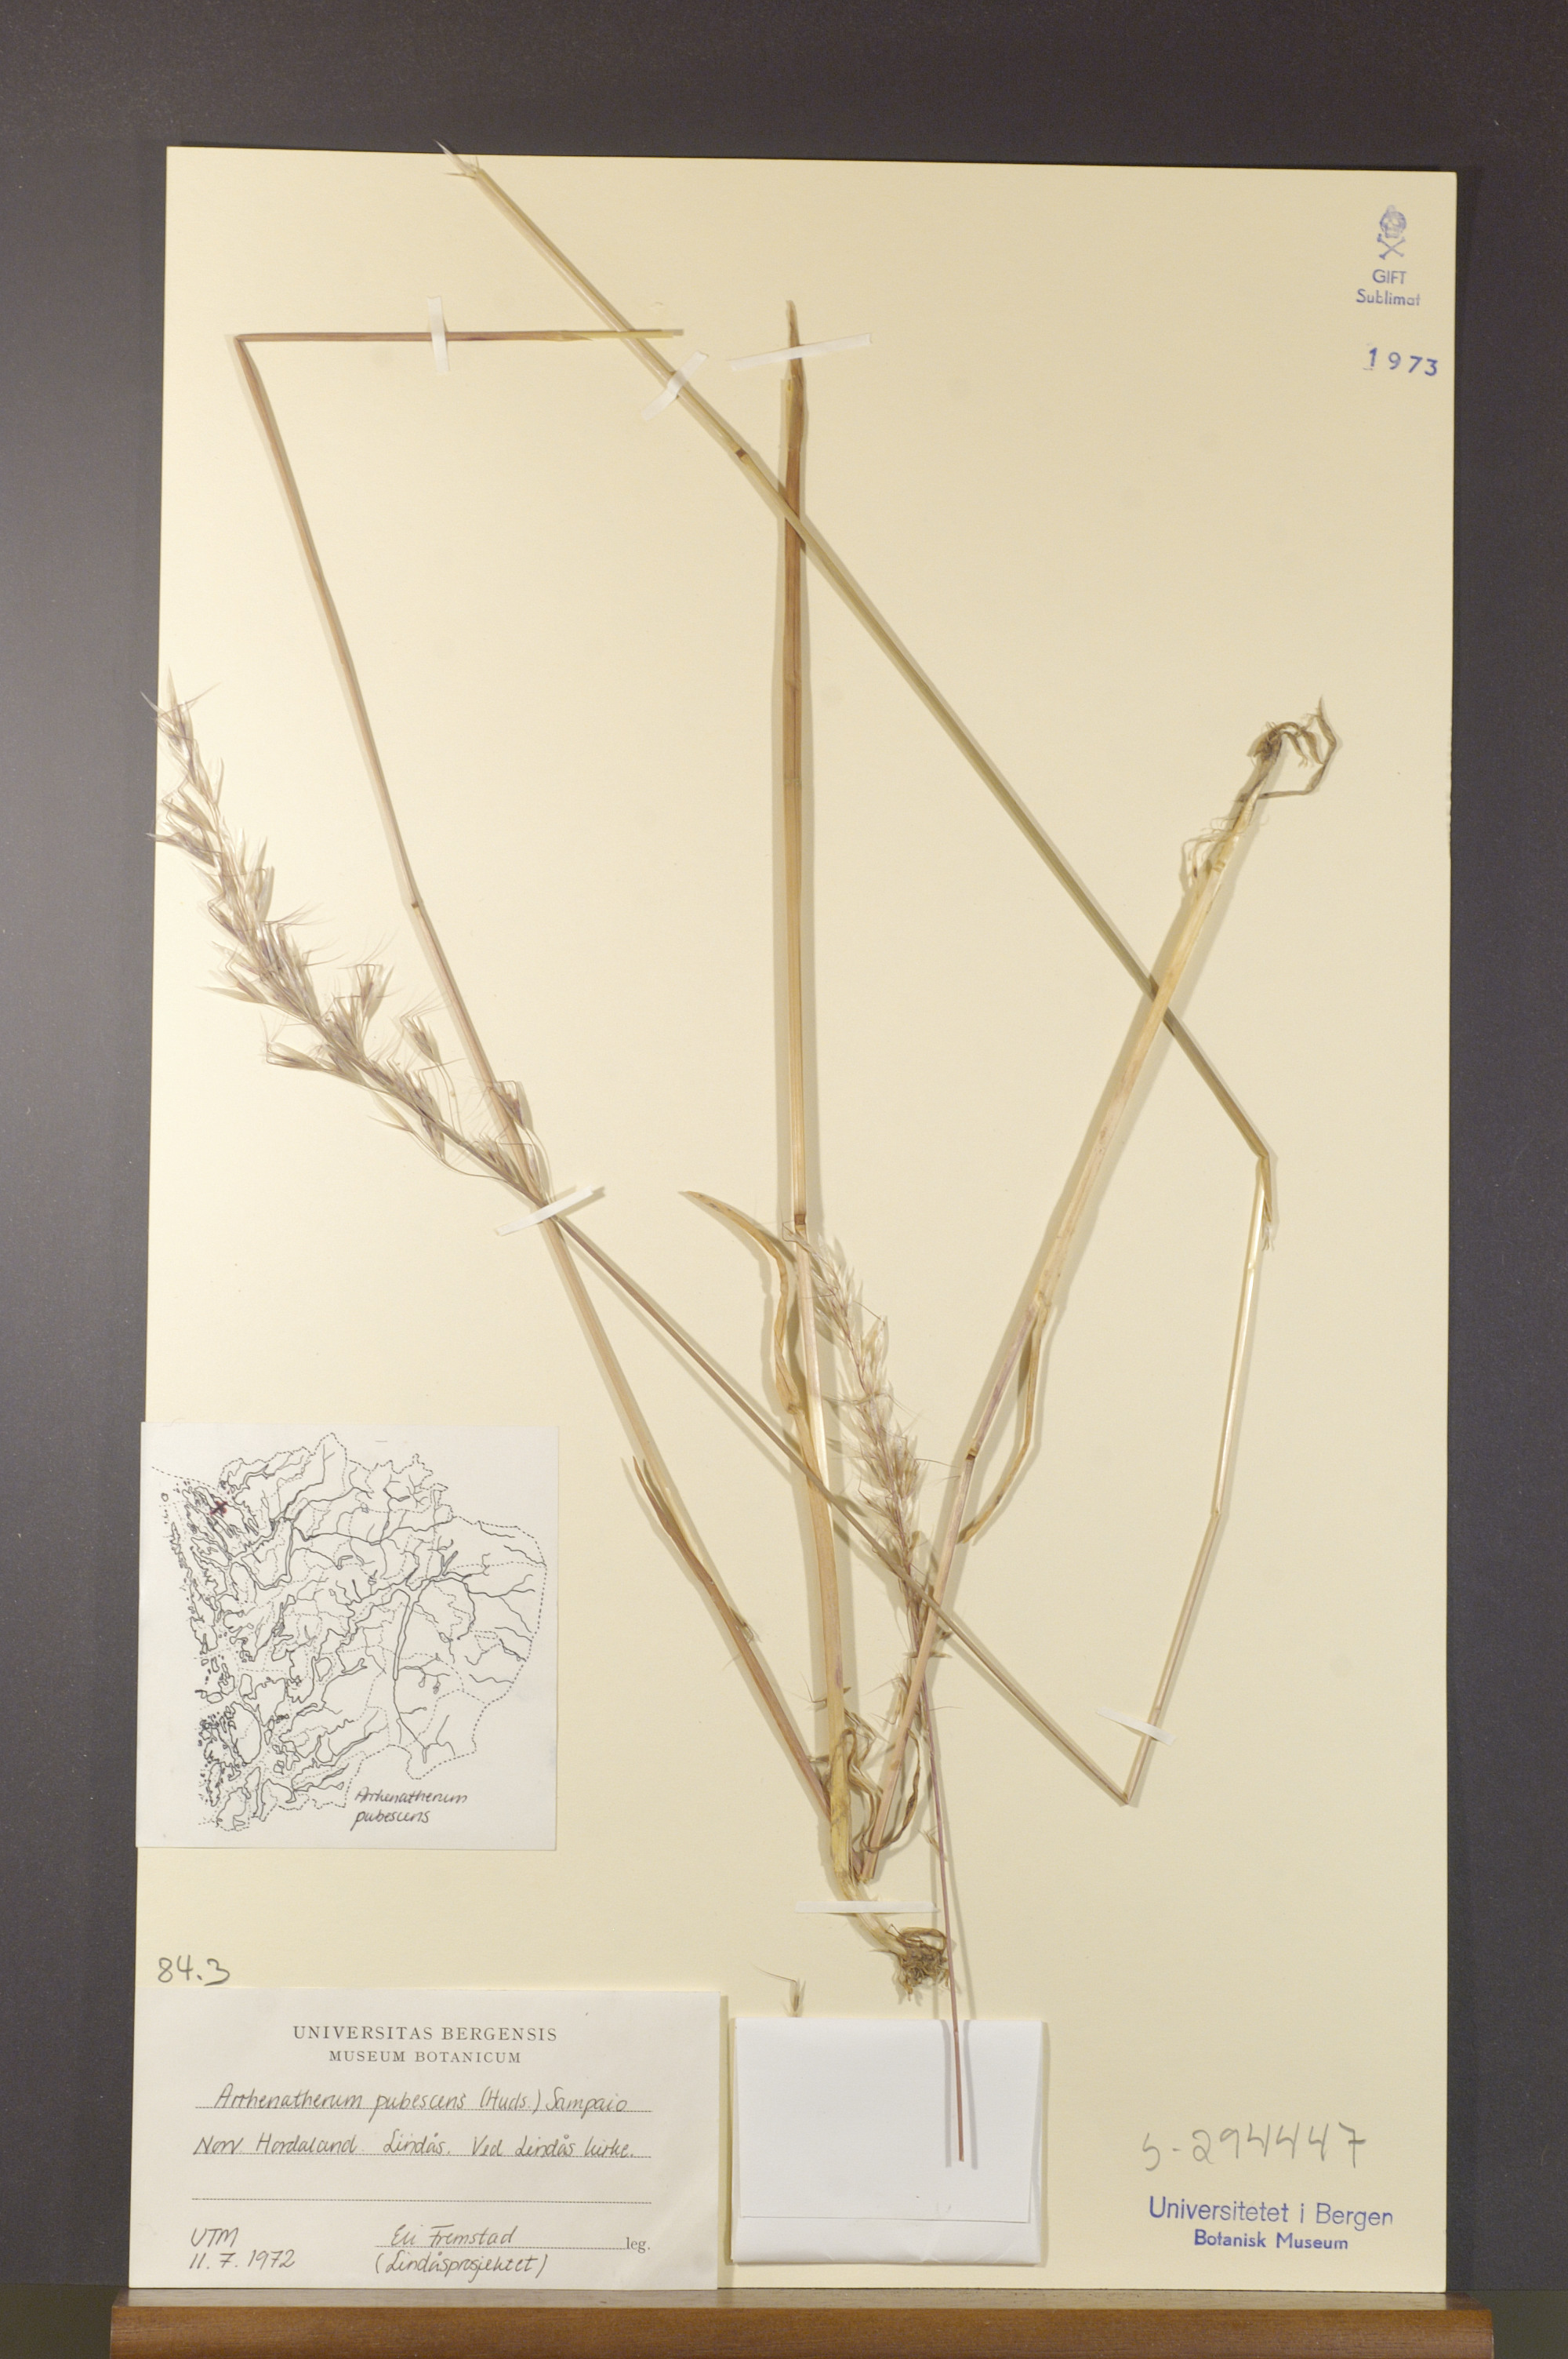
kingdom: Plantae
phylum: Tracheophyta
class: Liliopsida
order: Poales
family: Poaceae
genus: Avenula
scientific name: Avenula pubescens
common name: Downy alpine oatgrass
